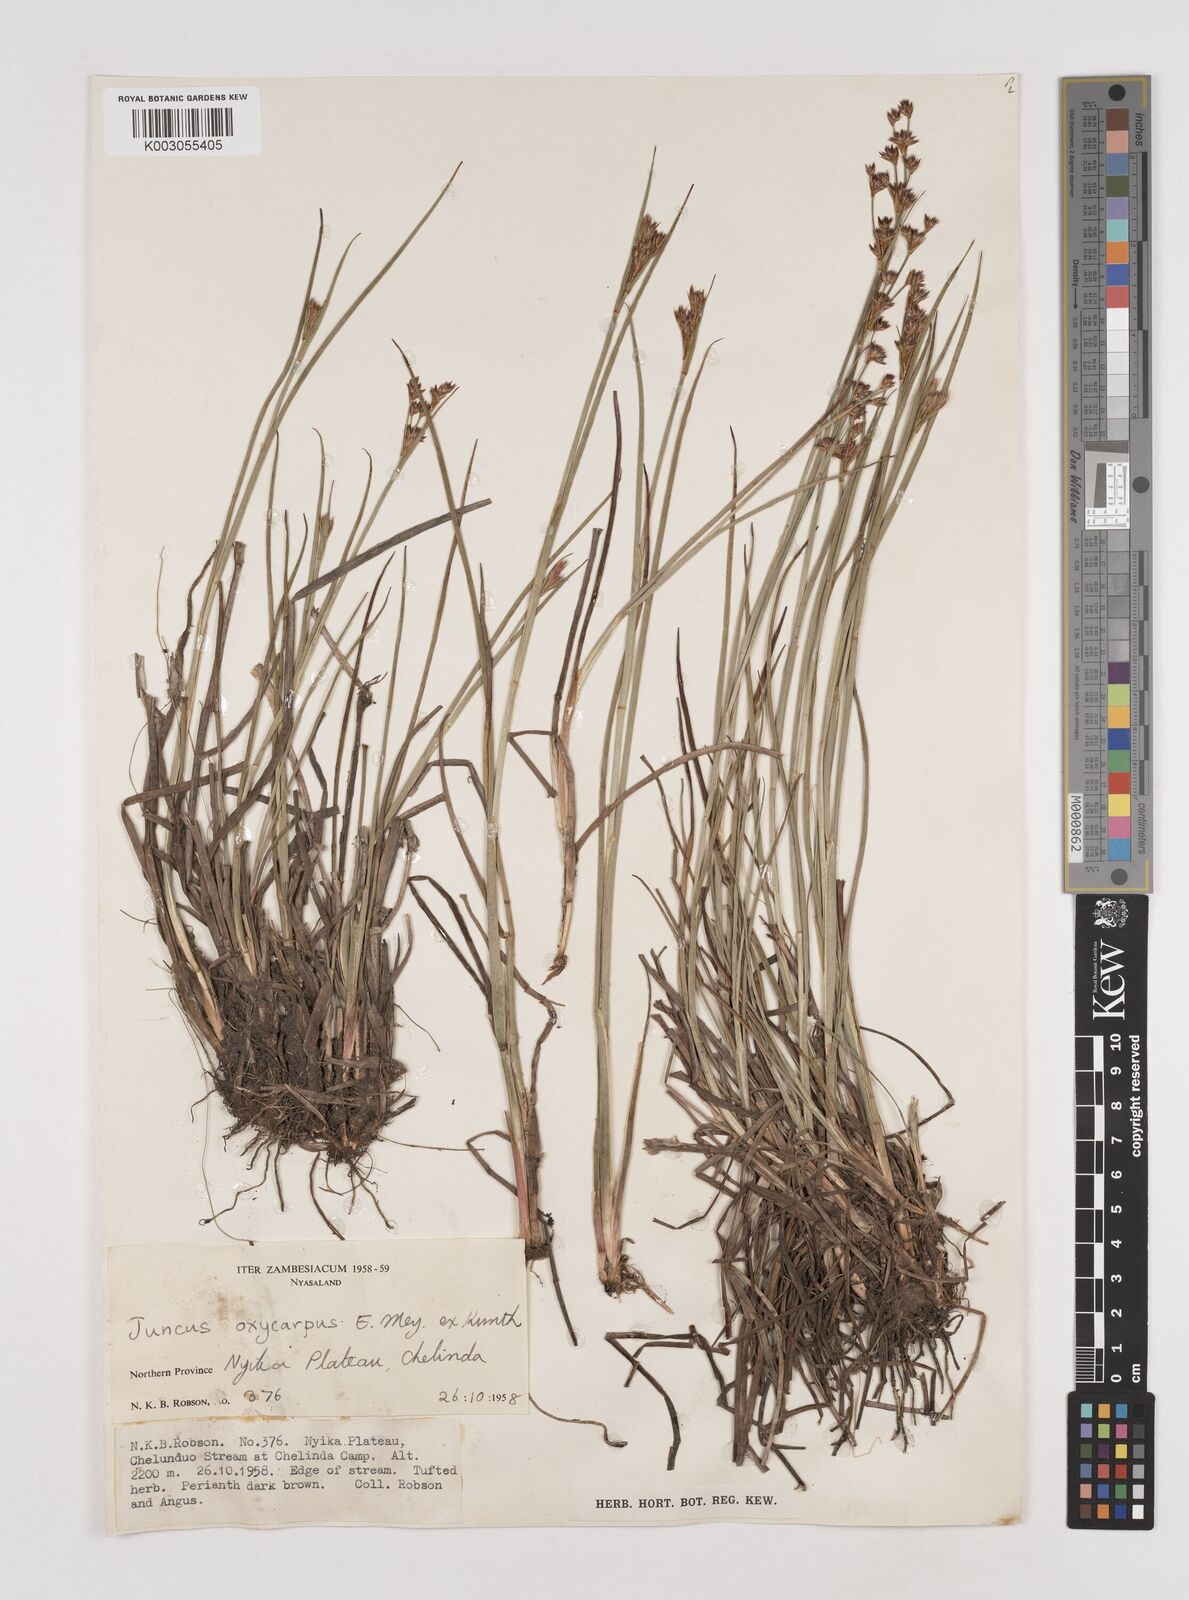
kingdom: Plantae
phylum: Tracheophyta
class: Liliopsida
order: Poales
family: Juncaceae
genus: Juncus
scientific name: Juncus oxycarpus
